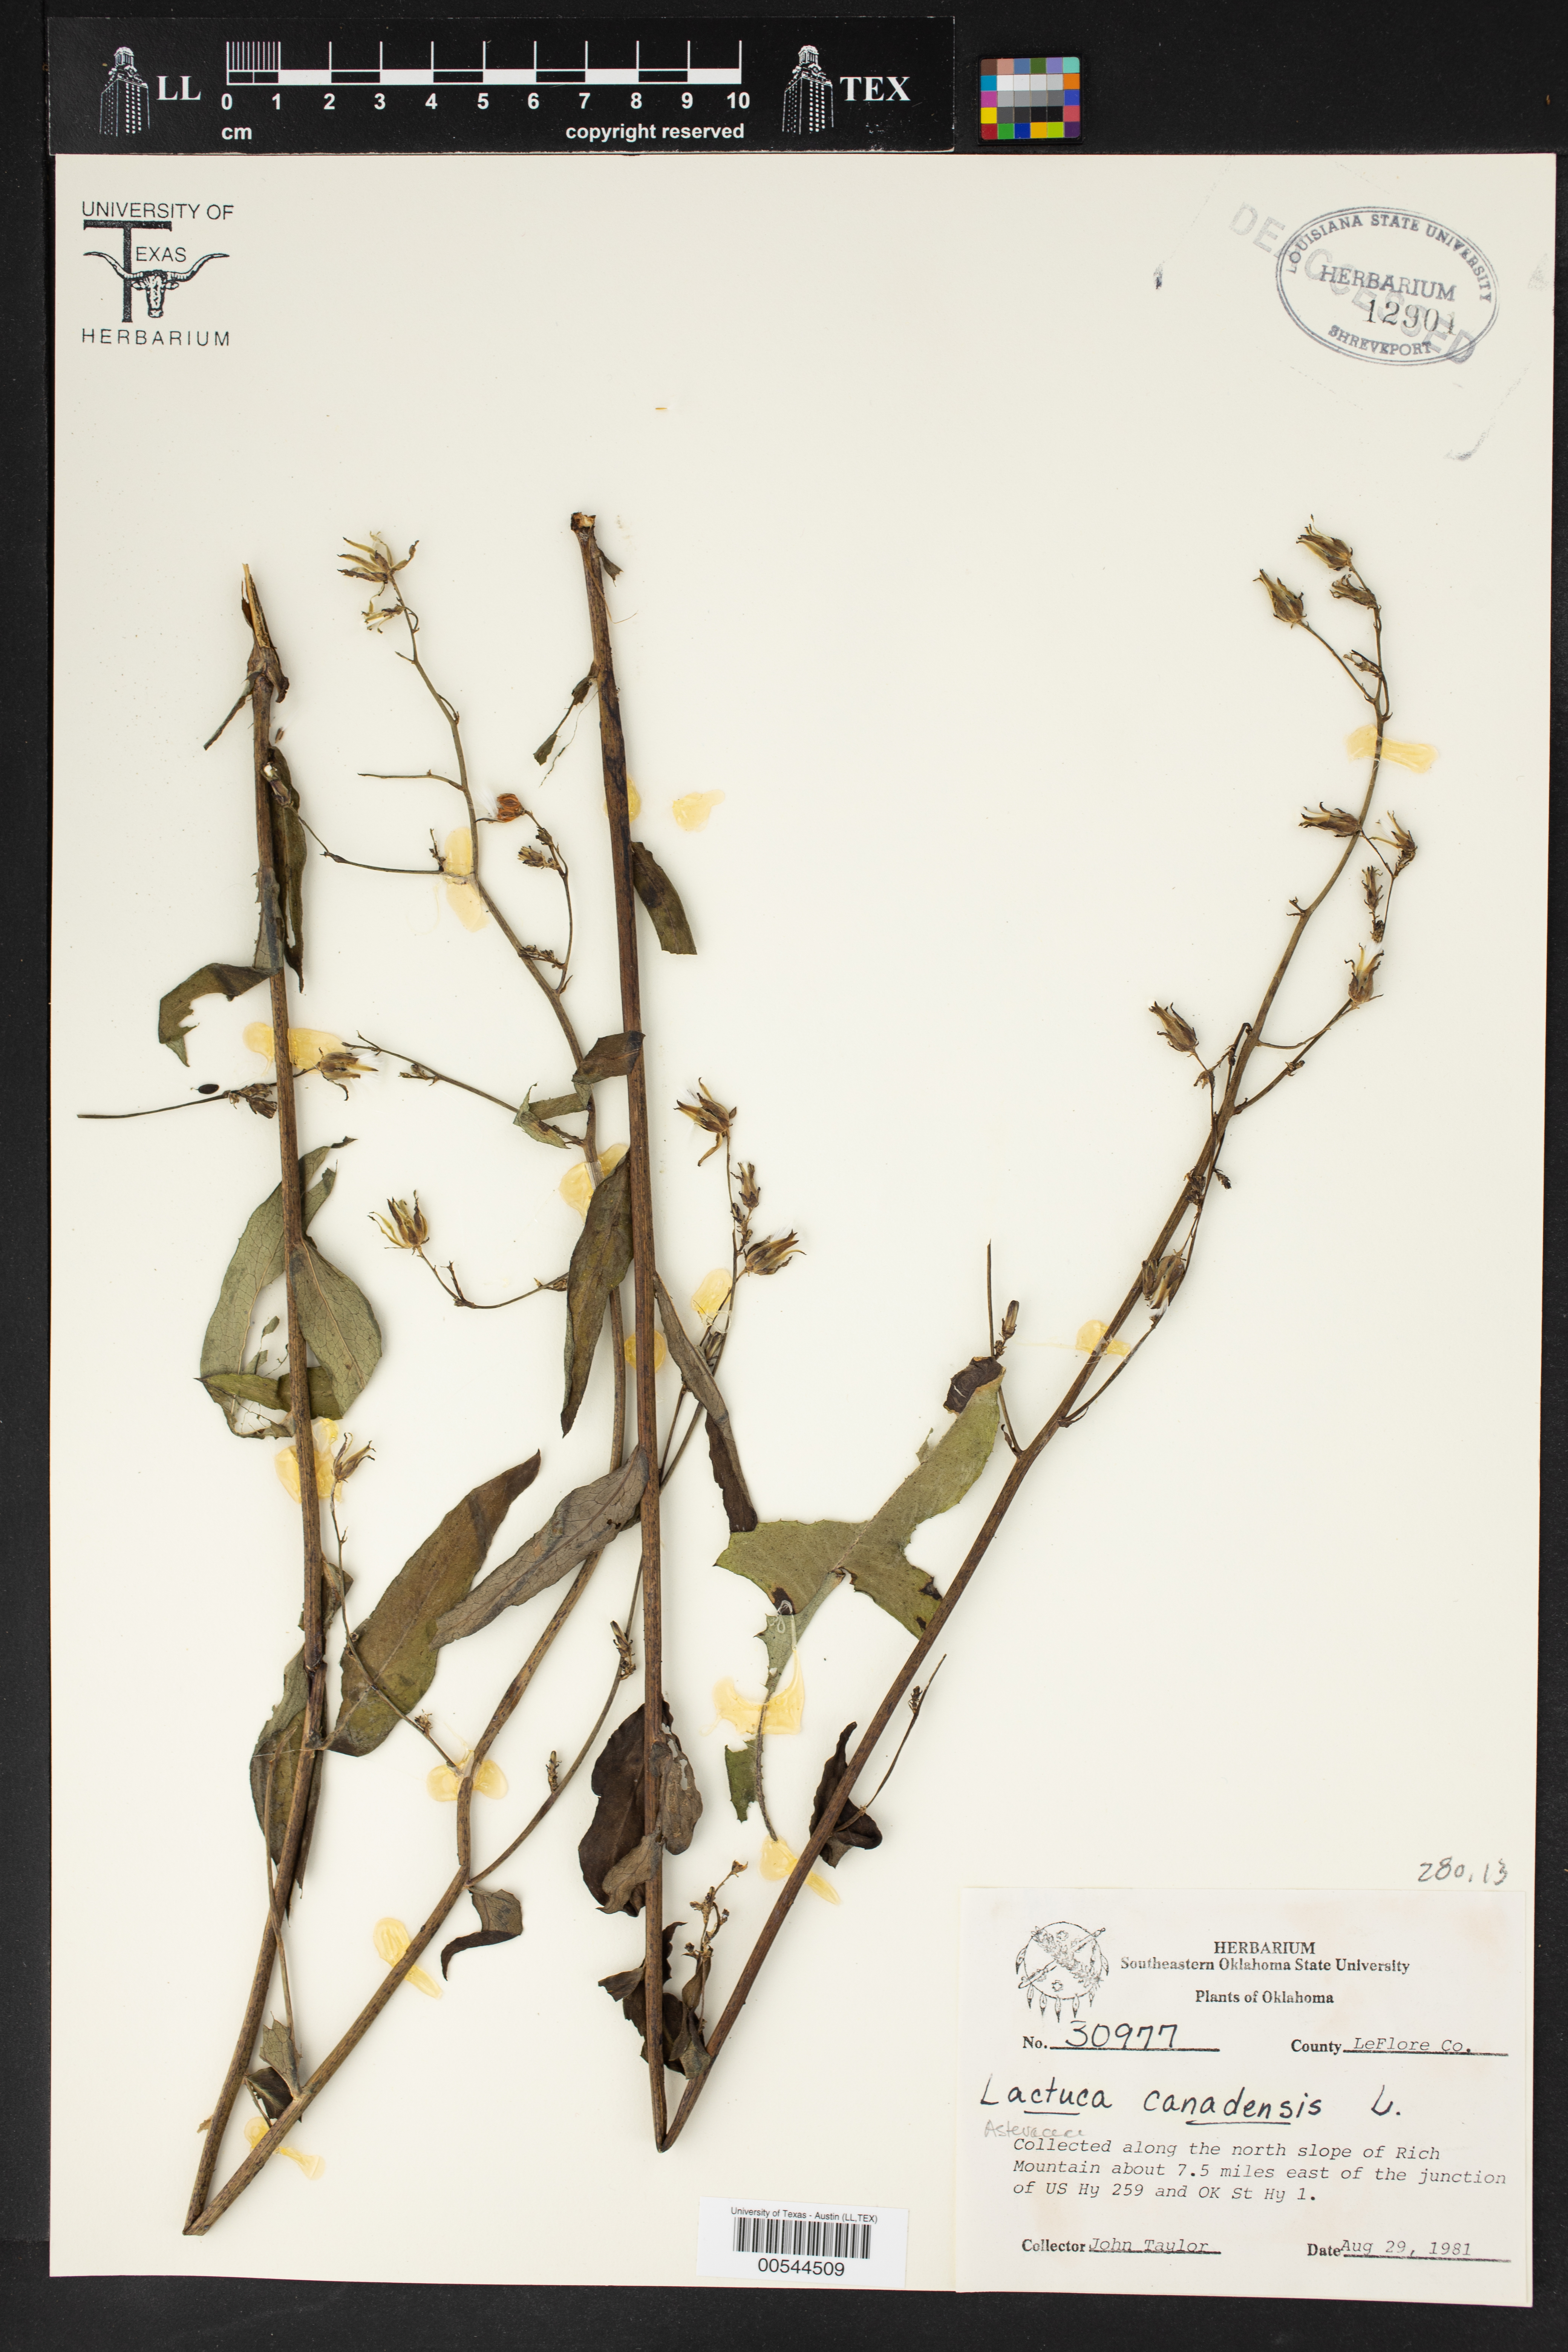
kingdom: Plantae
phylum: Tracheophyta
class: Magnoliopsida
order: Asterales
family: Asteraceae
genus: Lactuca
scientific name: Lactuca canadensis
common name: Canada lettuce
